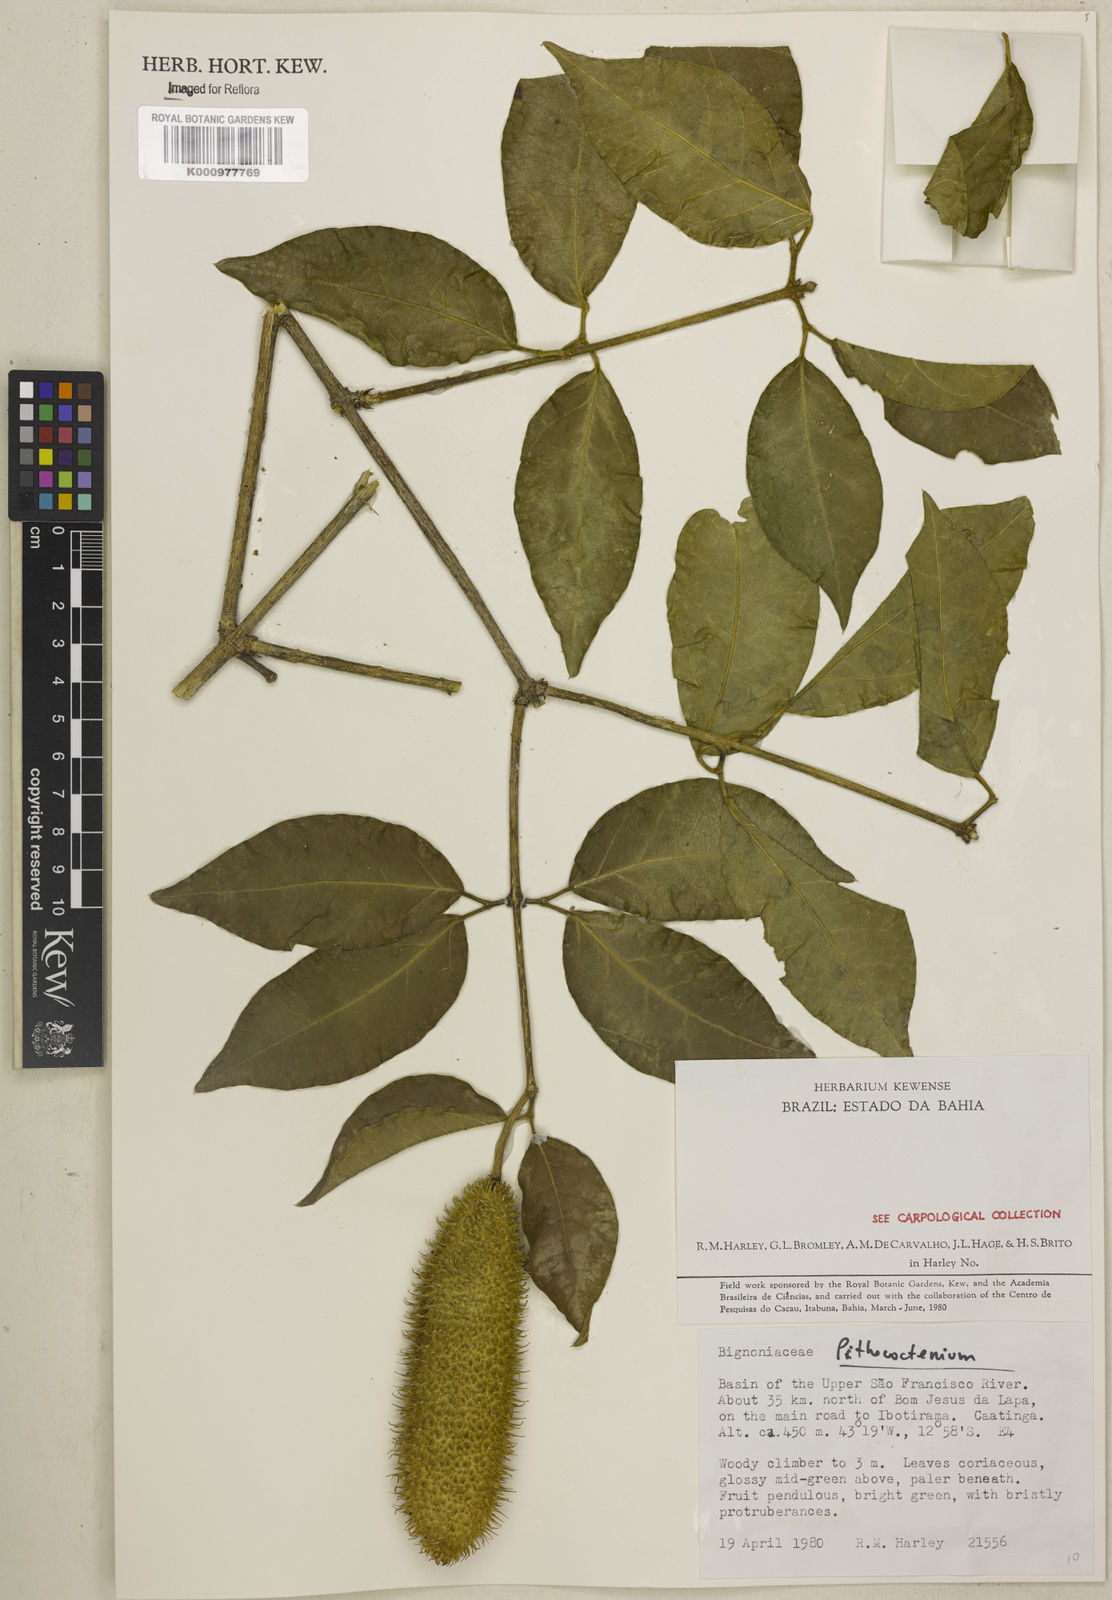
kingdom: Plantae
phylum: Tracheophyta
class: Magnoliopsida
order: Lamiales
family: Bignoniaceae
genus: Pithecoctenium
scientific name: Pithecoctenium
